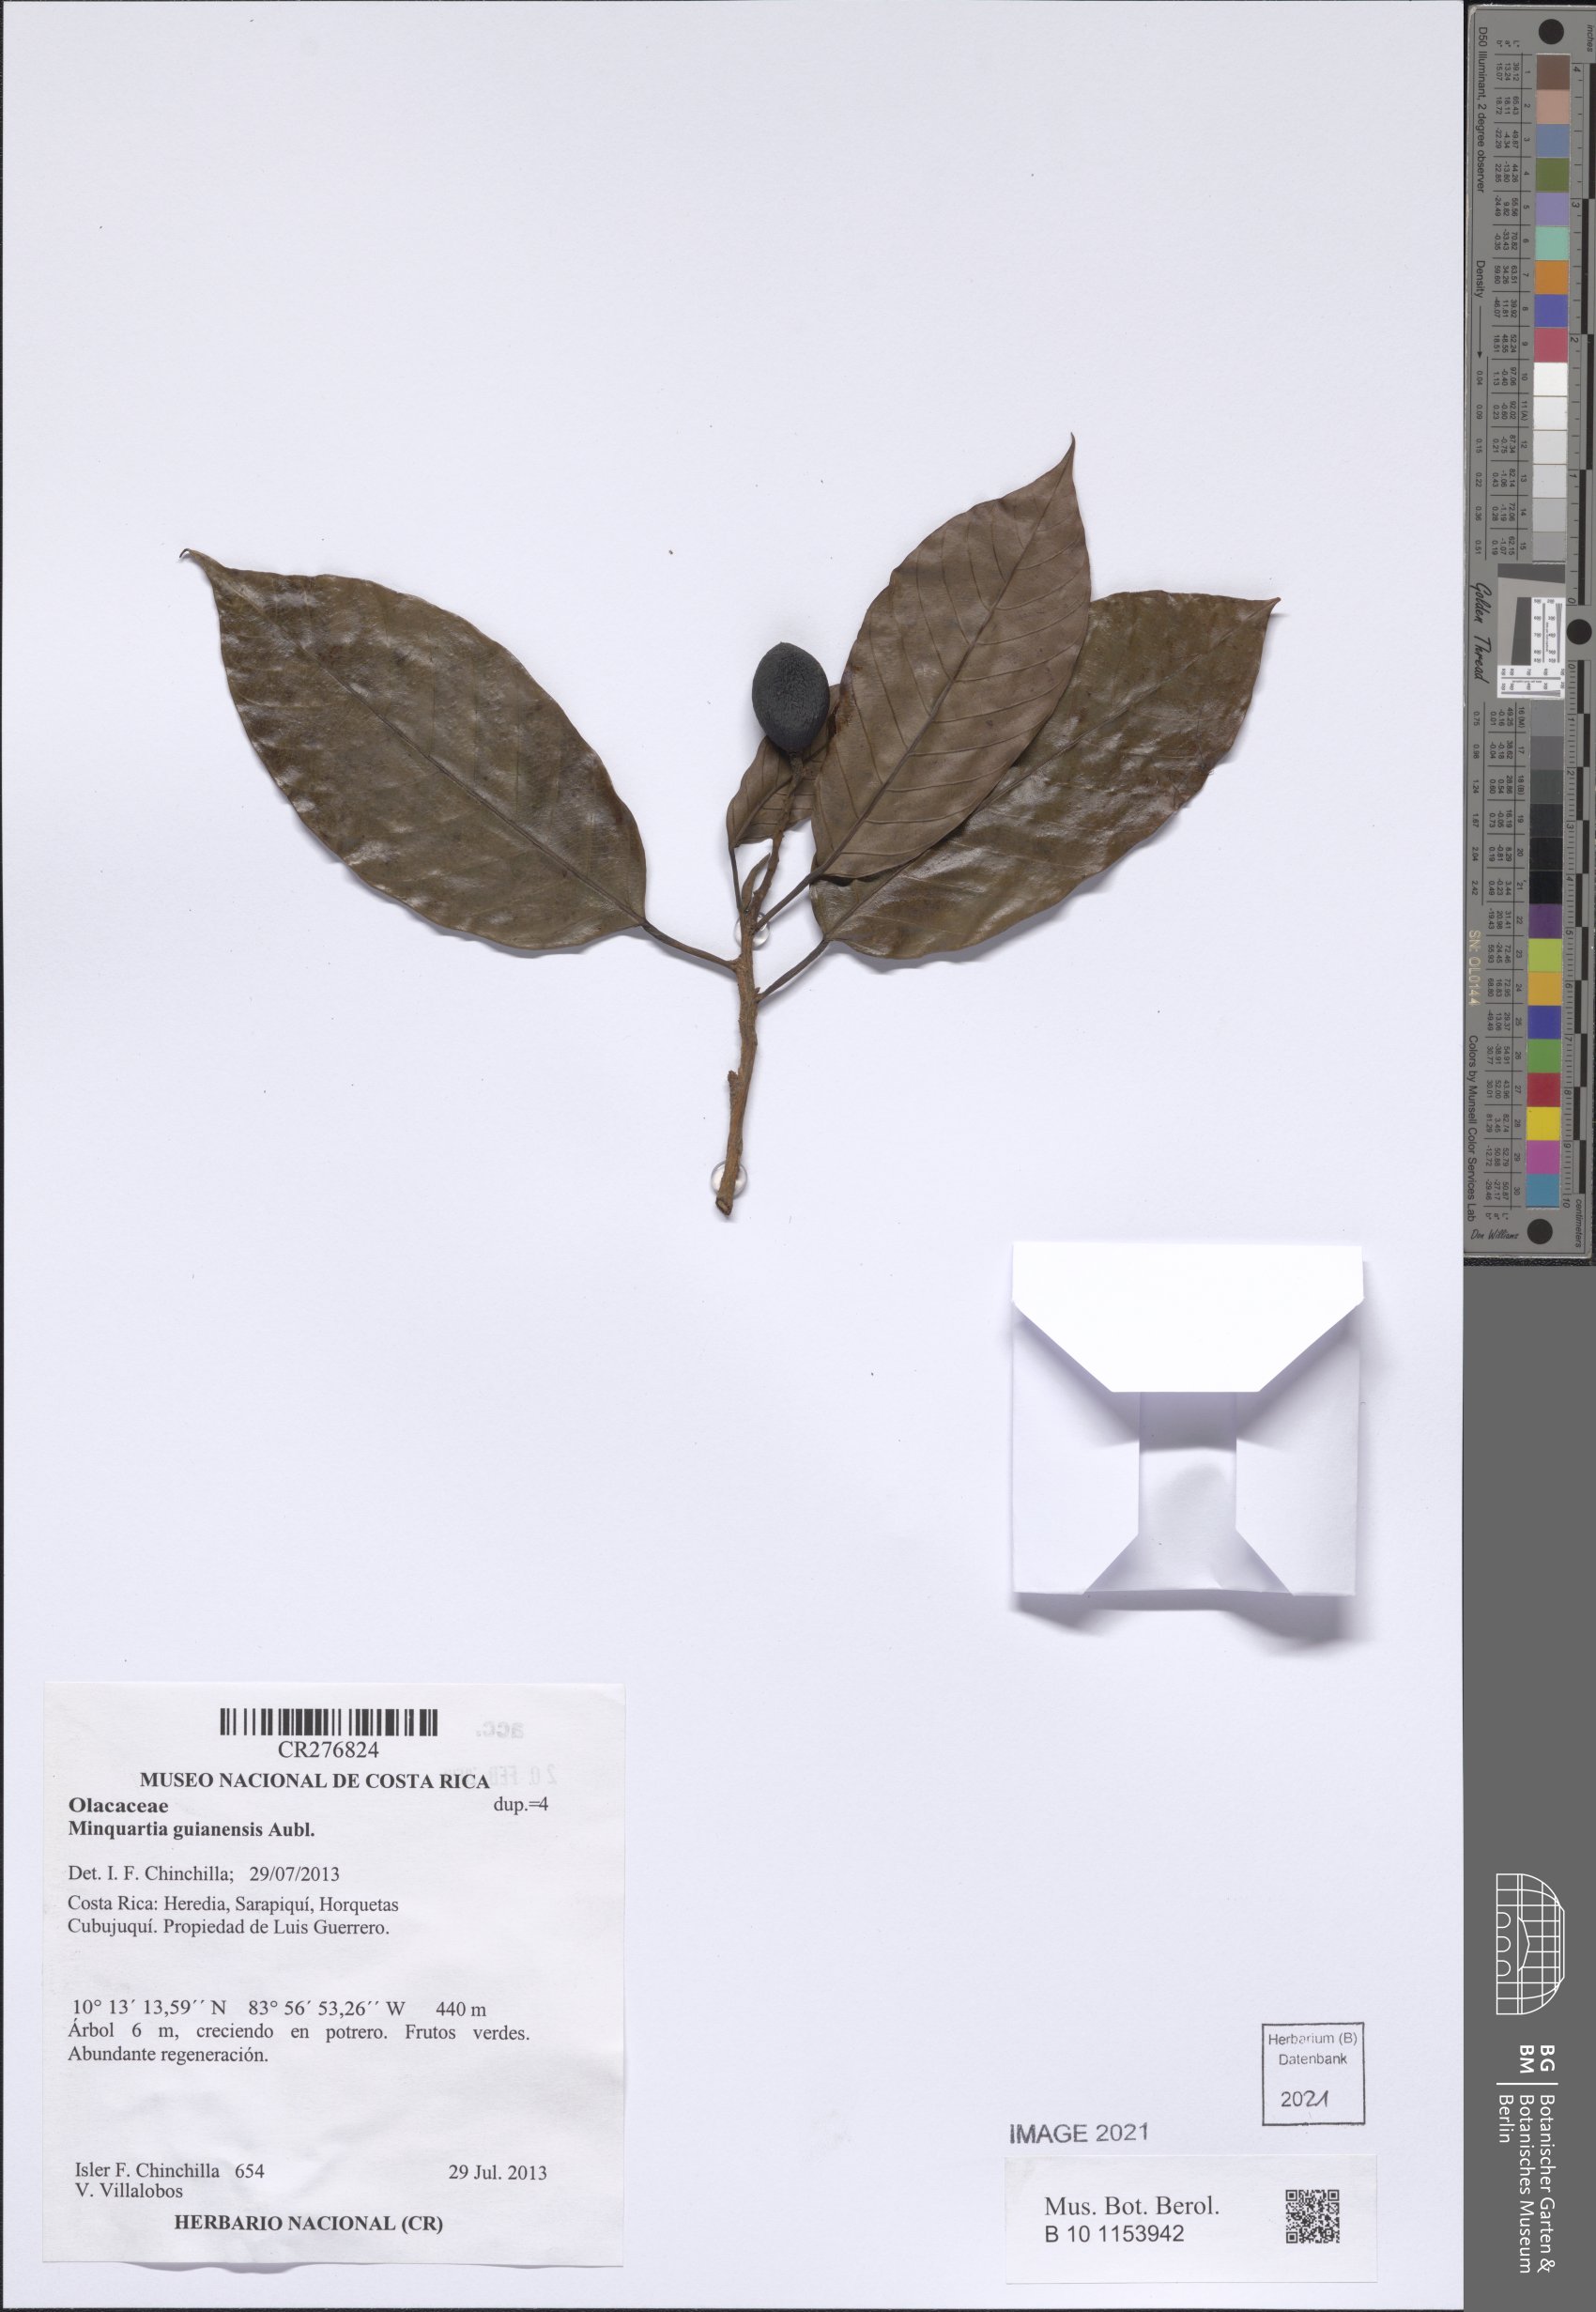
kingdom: Plantae
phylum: Tracheophyta
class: Magnoliopsida
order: Santalales
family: Coulaceae
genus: Minquartia
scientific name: Minquartia guianensis
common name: Black manwood
